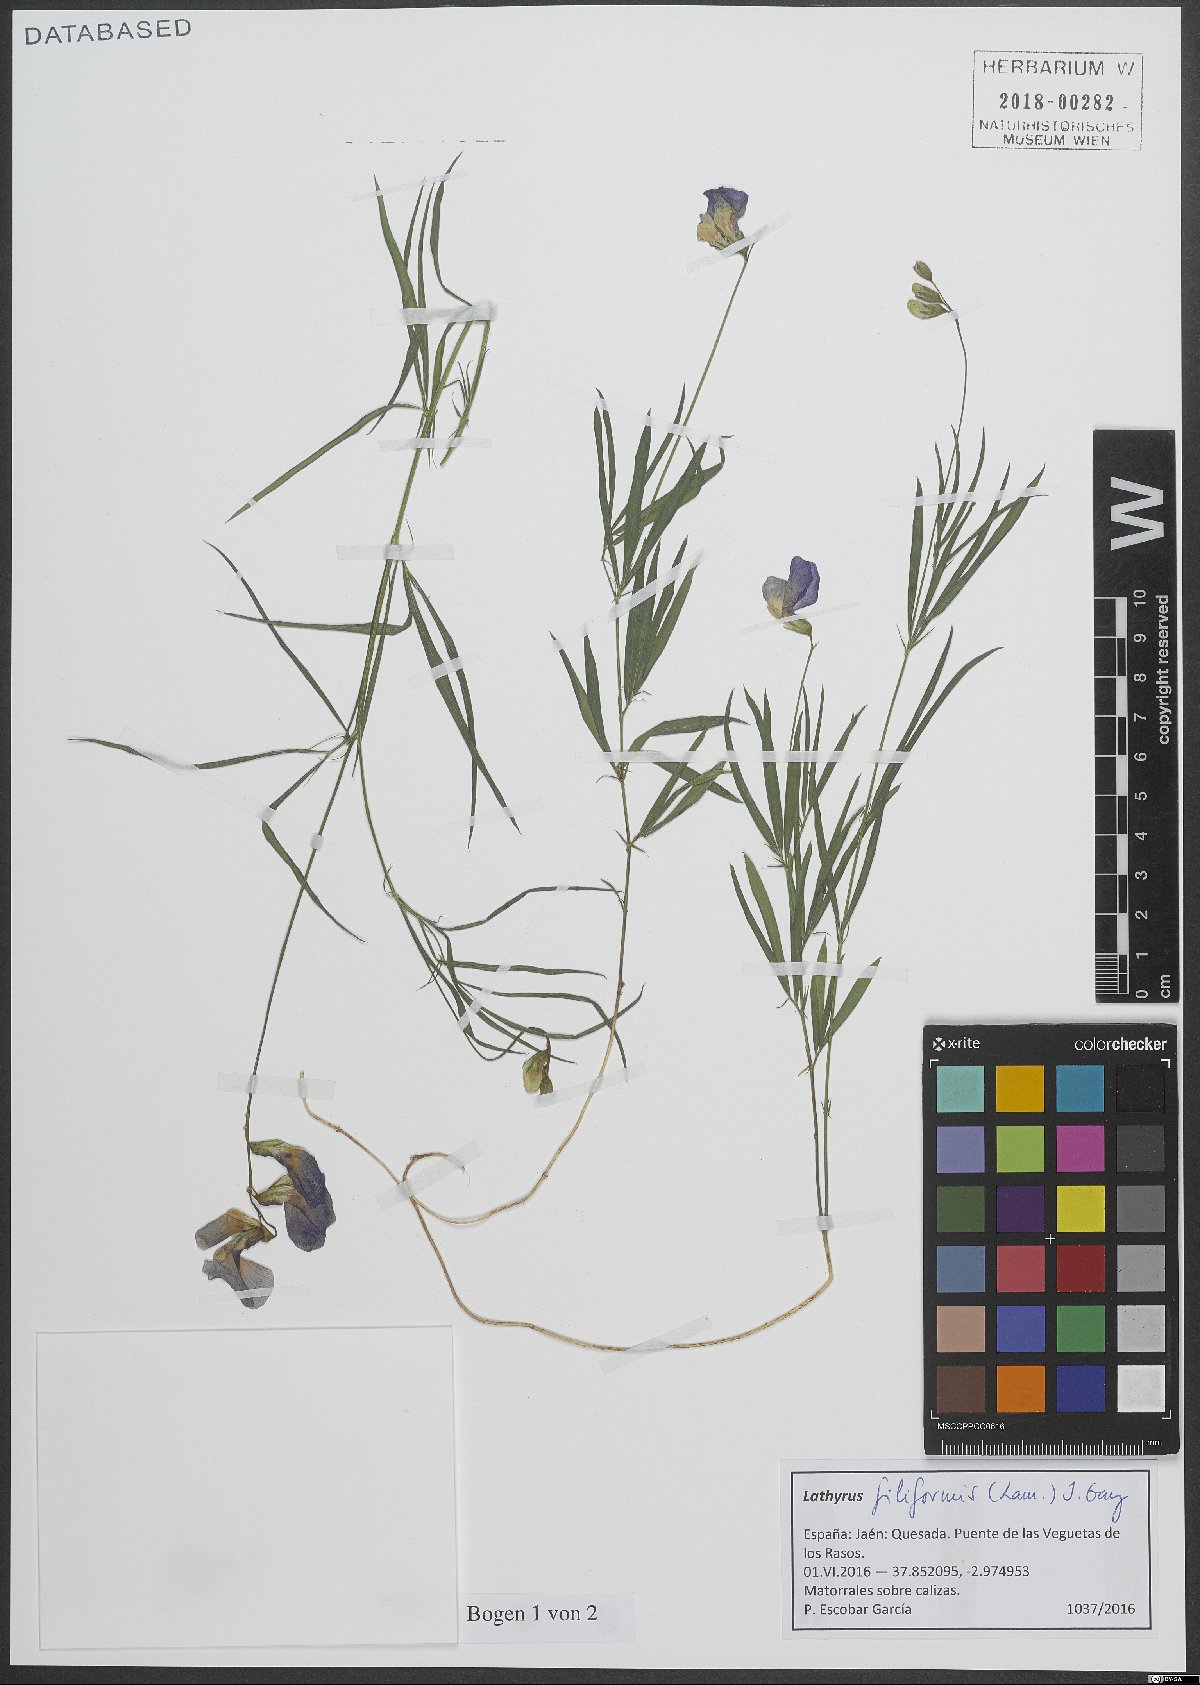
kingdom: Plantae
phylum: Tracheophyta
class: Magnoliopsida
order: Fabales
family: Fabaceae
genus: Lathyrus
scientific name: Lathyrus filiformis
